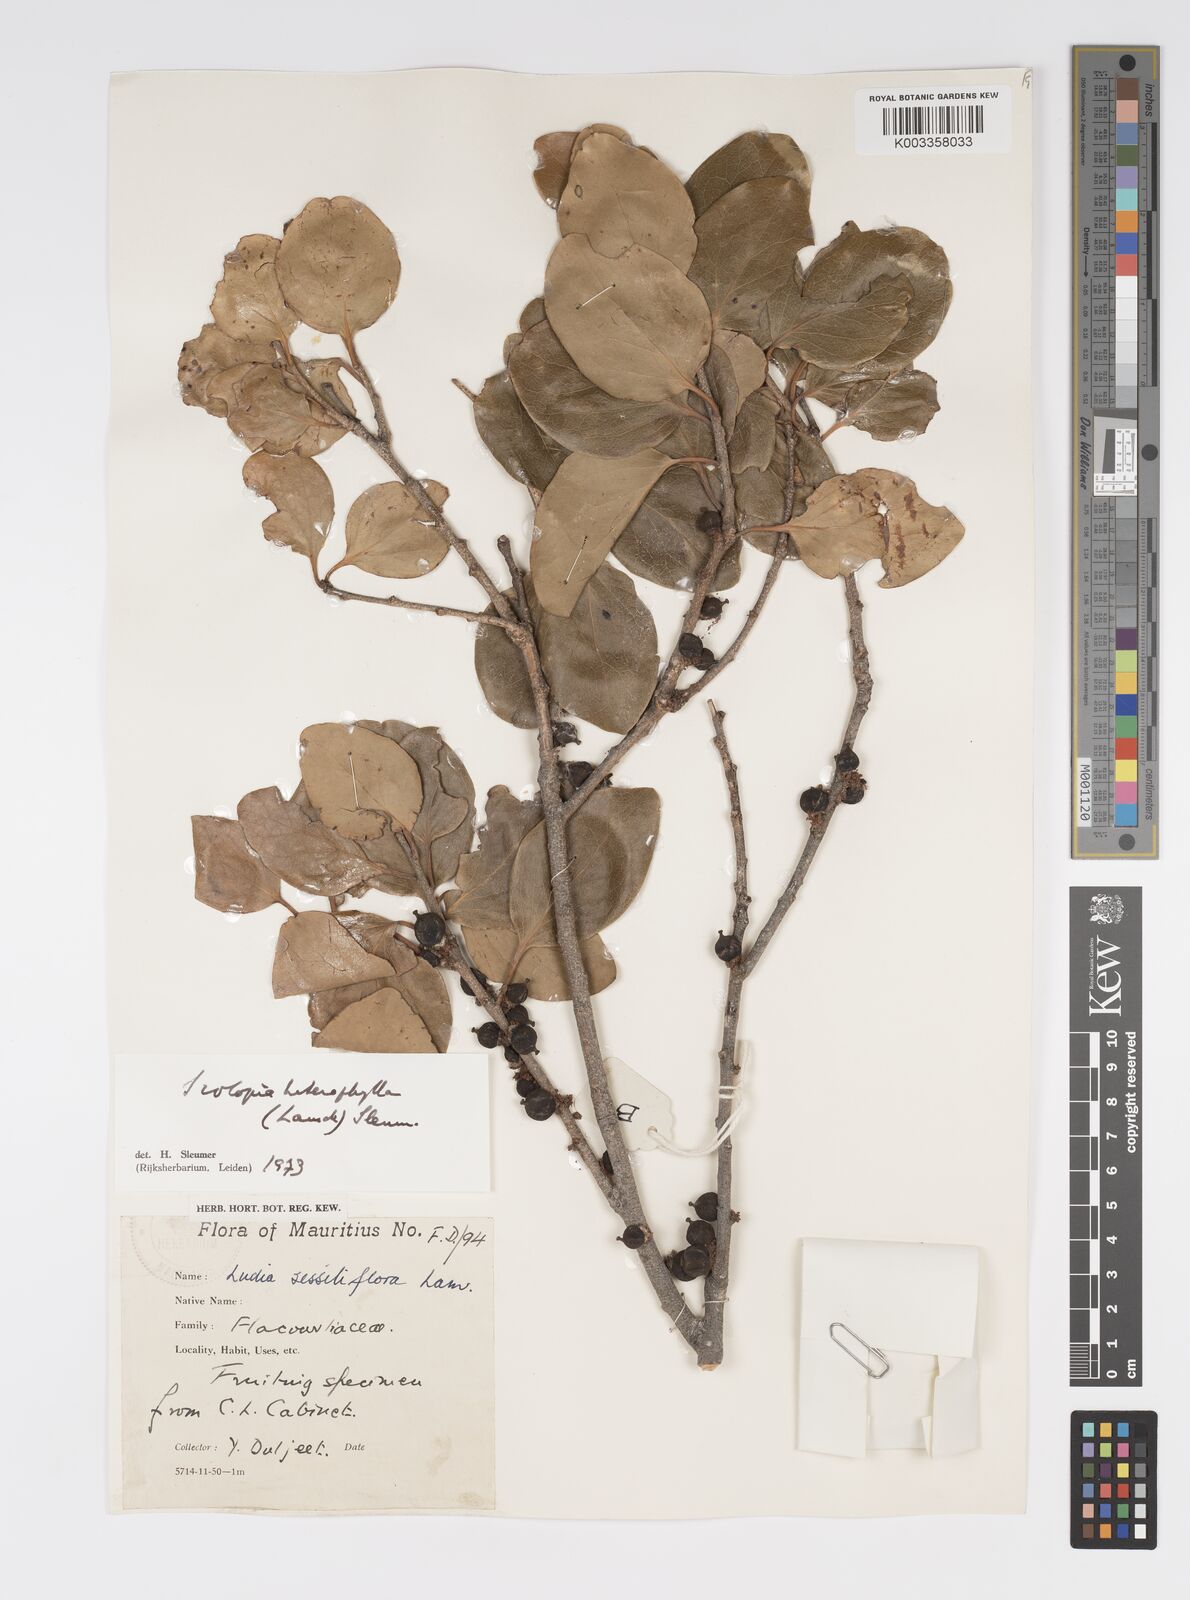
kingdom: Plantae
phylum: Tracheophyta
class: Magnoliopsida
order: Malpighiales
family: Salicaceae
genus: Scolopia
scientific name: Scolopia heterophylla
